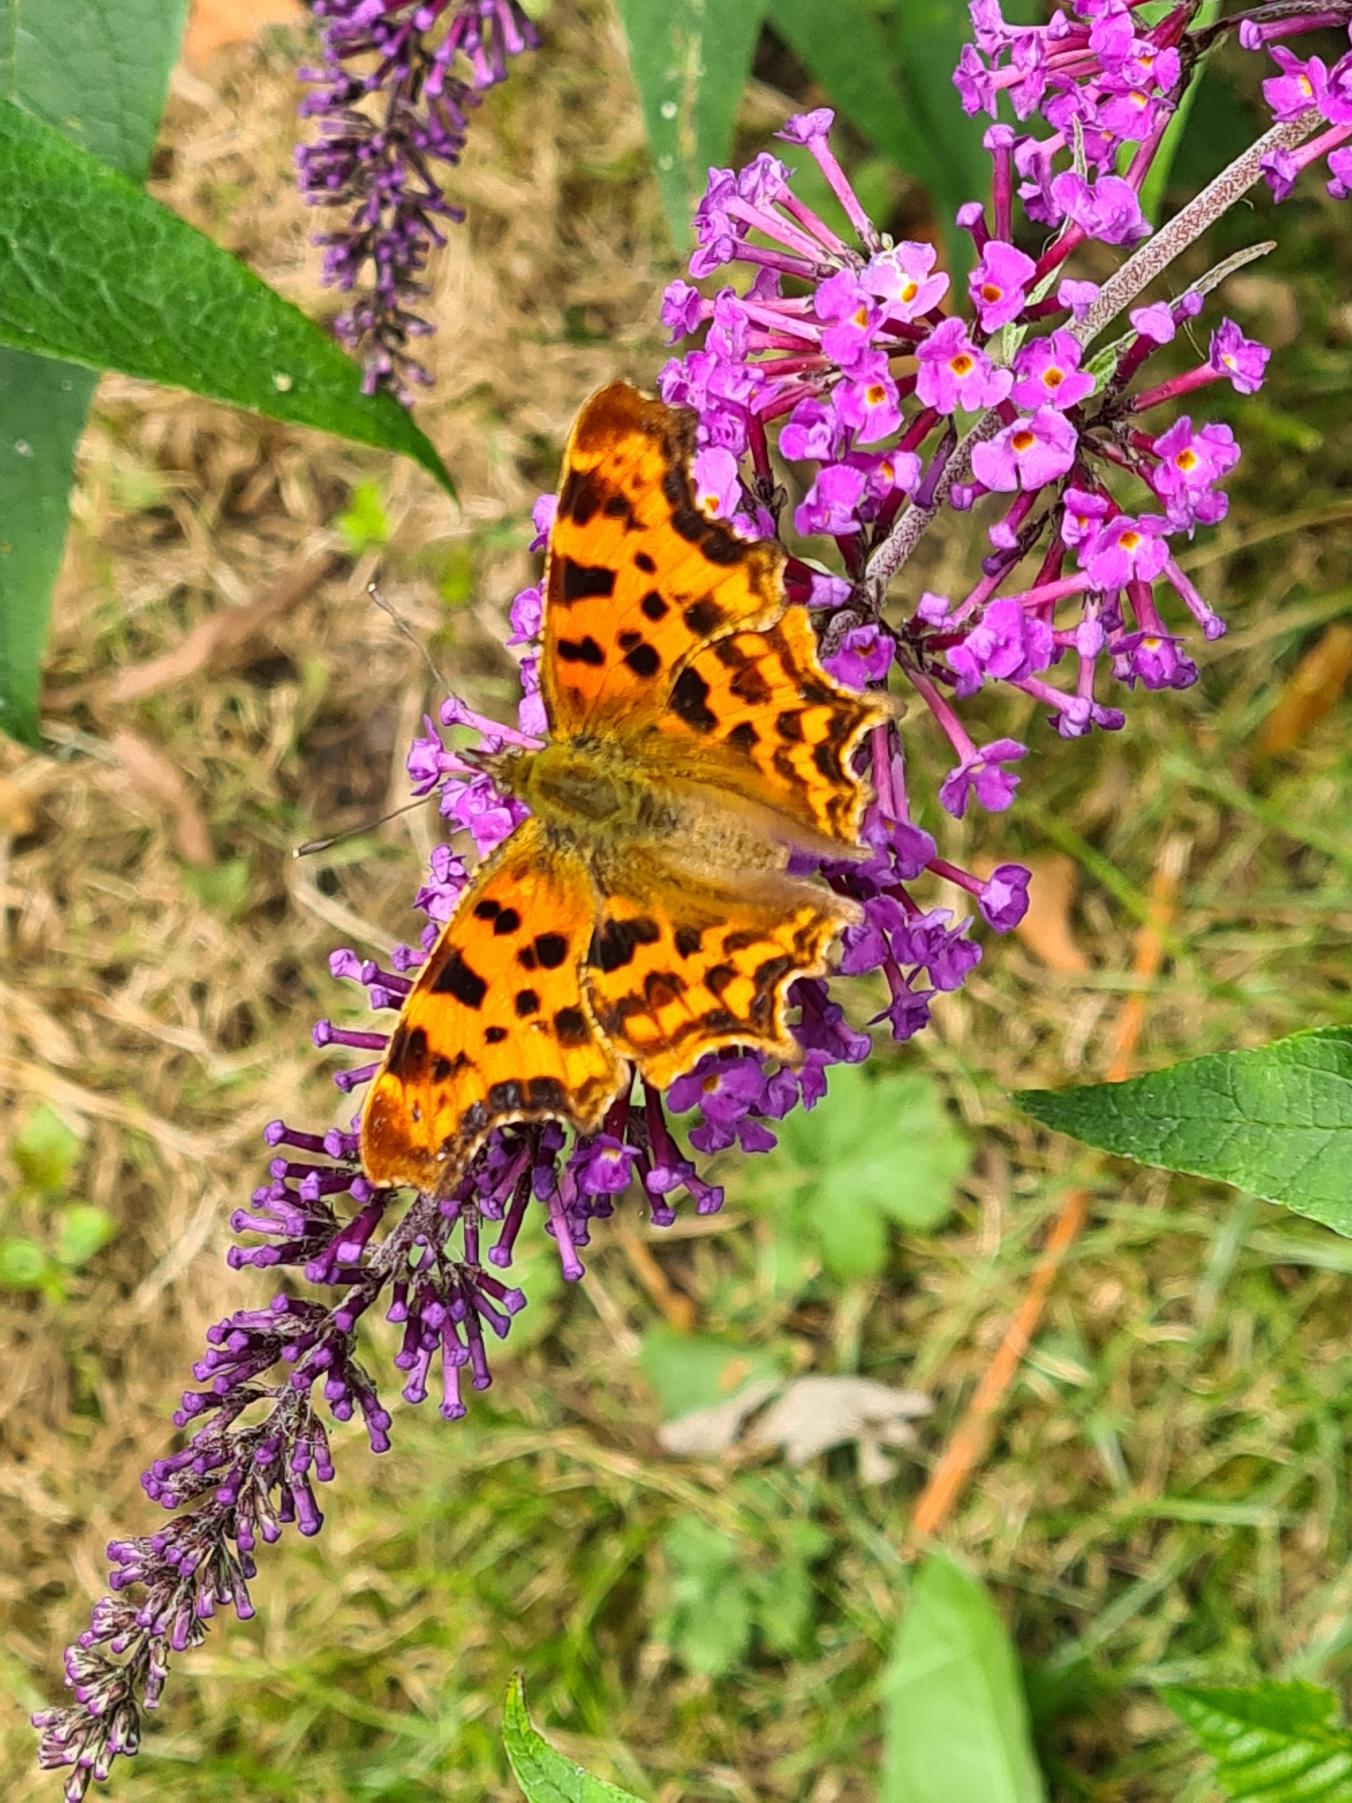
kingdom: Animalia
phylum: Arthropoda
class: Insecta
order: Lepidoptera
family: Nymphalidae
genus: Polygonia
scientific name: Polygonia c-album
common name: Det hvide C
